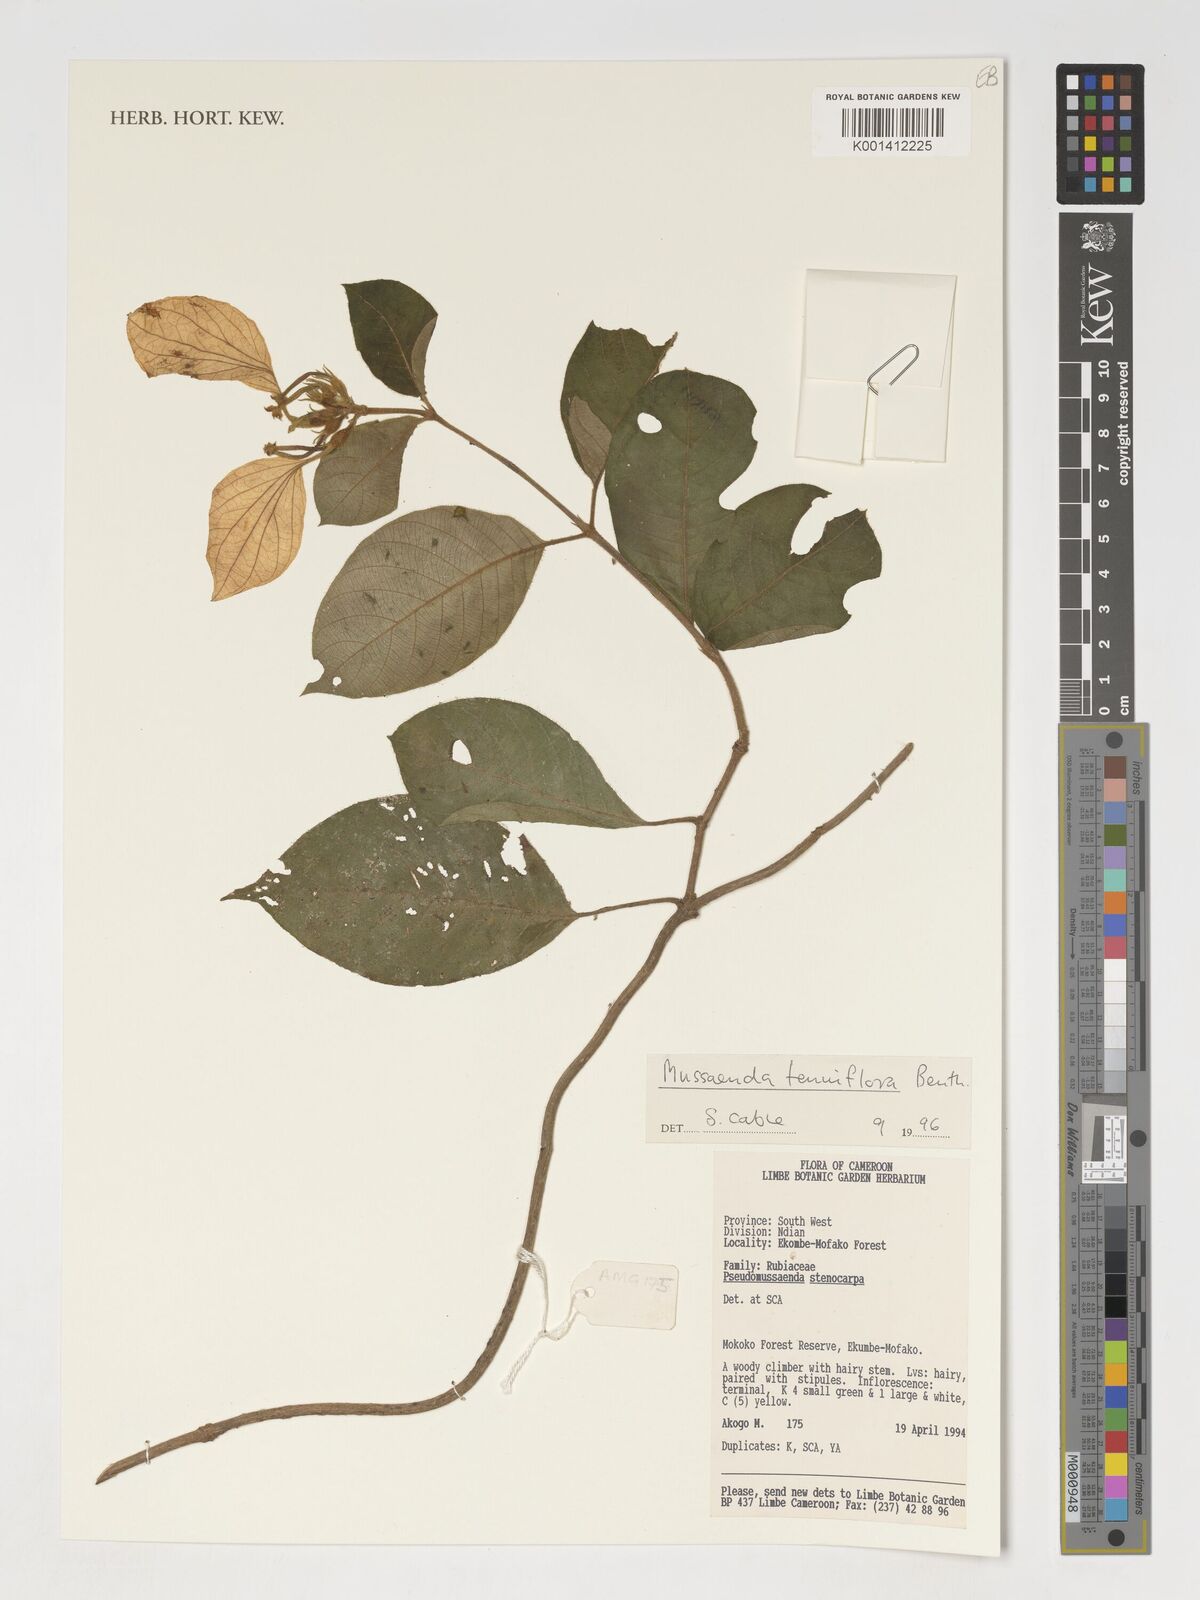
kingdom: Plantae
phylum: Tracheophyta
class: Magnoliopsida
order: Gentianales
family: Rubiaceae
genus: Mussaenda
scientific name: Mussaenda tenuiflora
